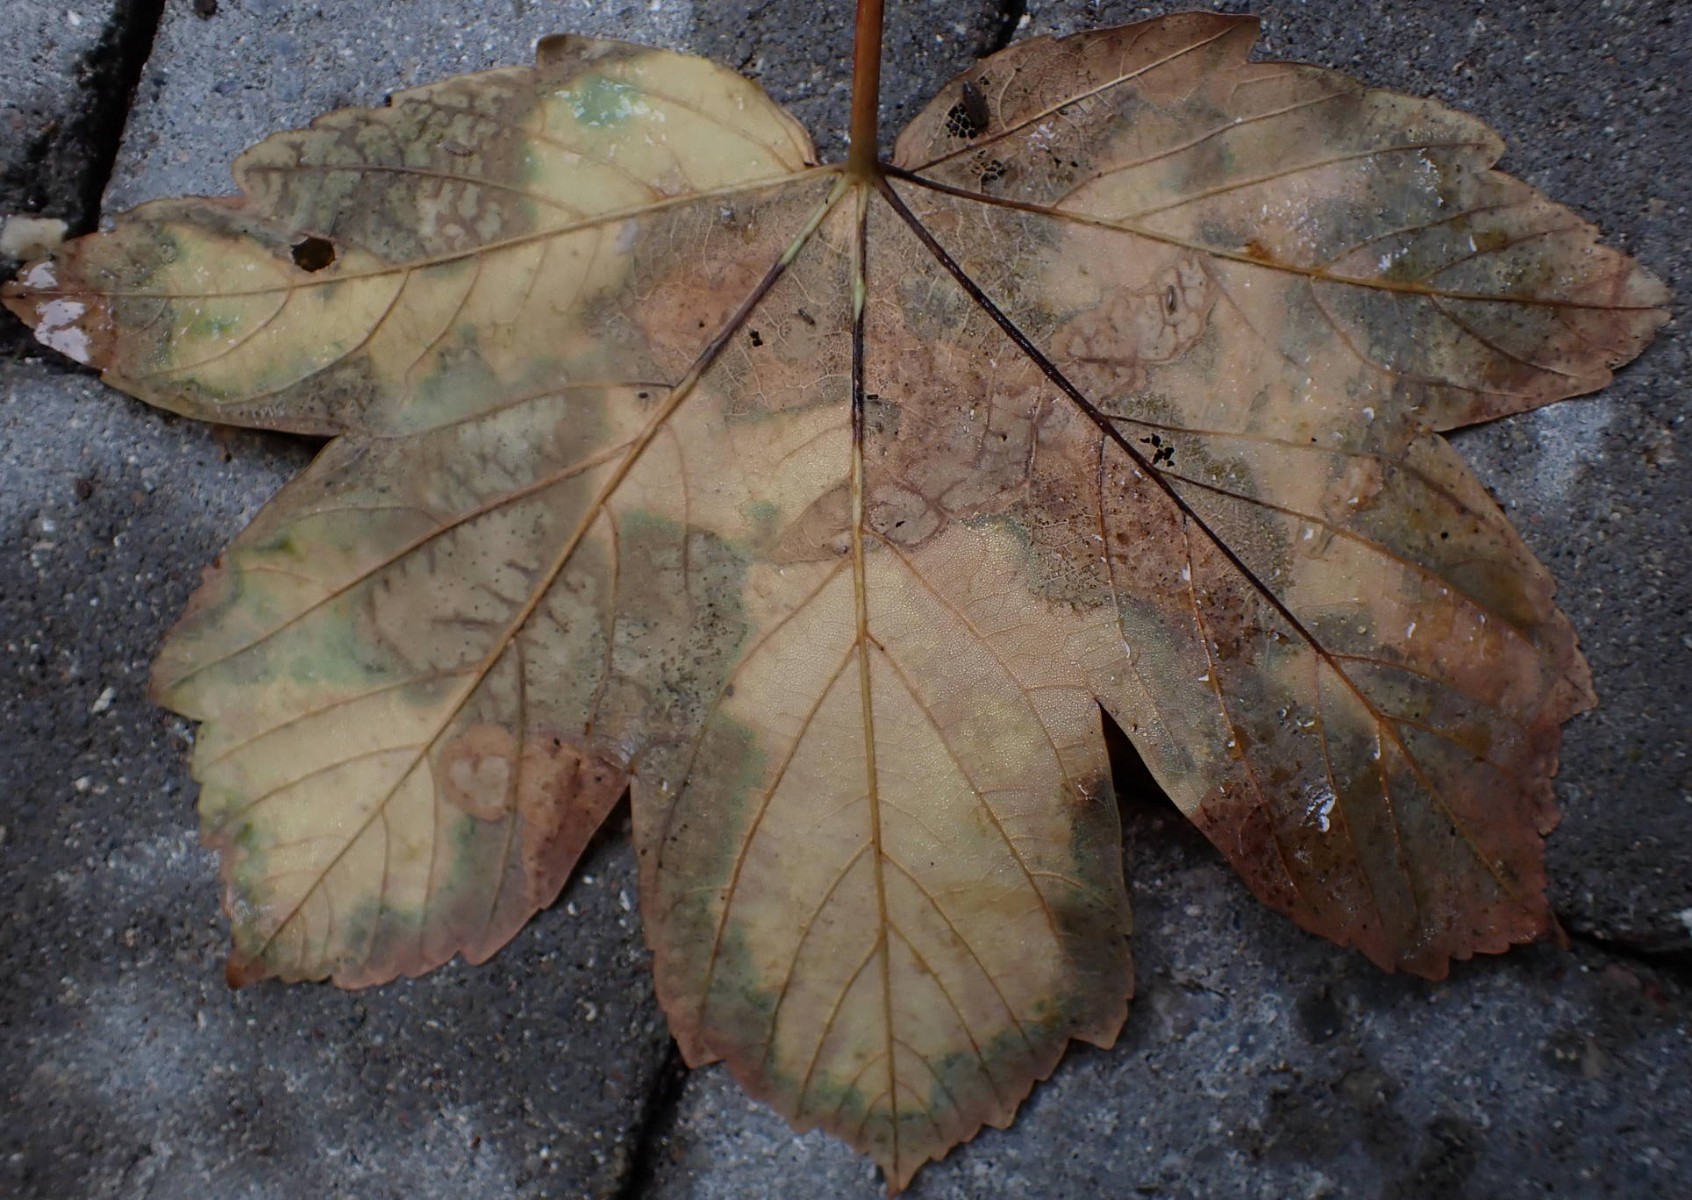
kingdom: Fungi
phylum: Ascomycota
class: Sordariomycetes
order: Diaporthales
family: Gnomoniaceae
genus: Pleuroceras
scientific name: Pleuroceras pseudoplatani
